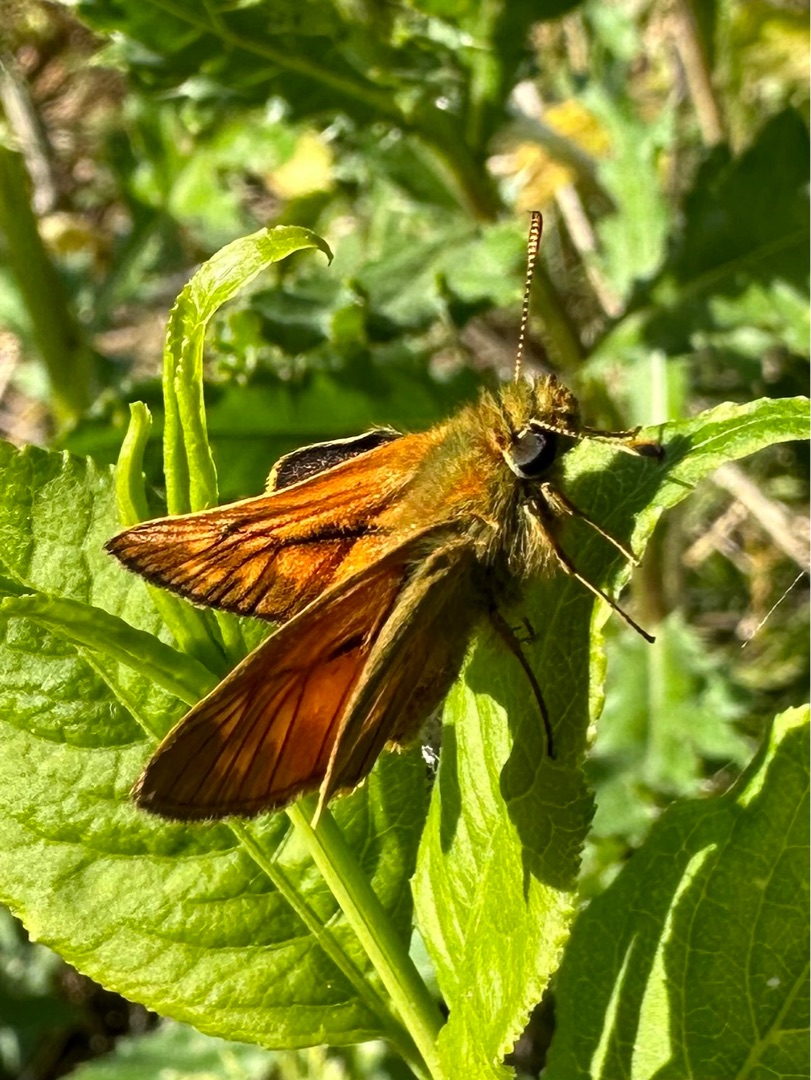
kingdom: Animalia
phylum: Arthropoda
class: Insecta
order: Lepidoptera
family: Hesperiidae
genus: Ochlodes
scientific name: Ochlodes venata
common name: Stor bredpande
